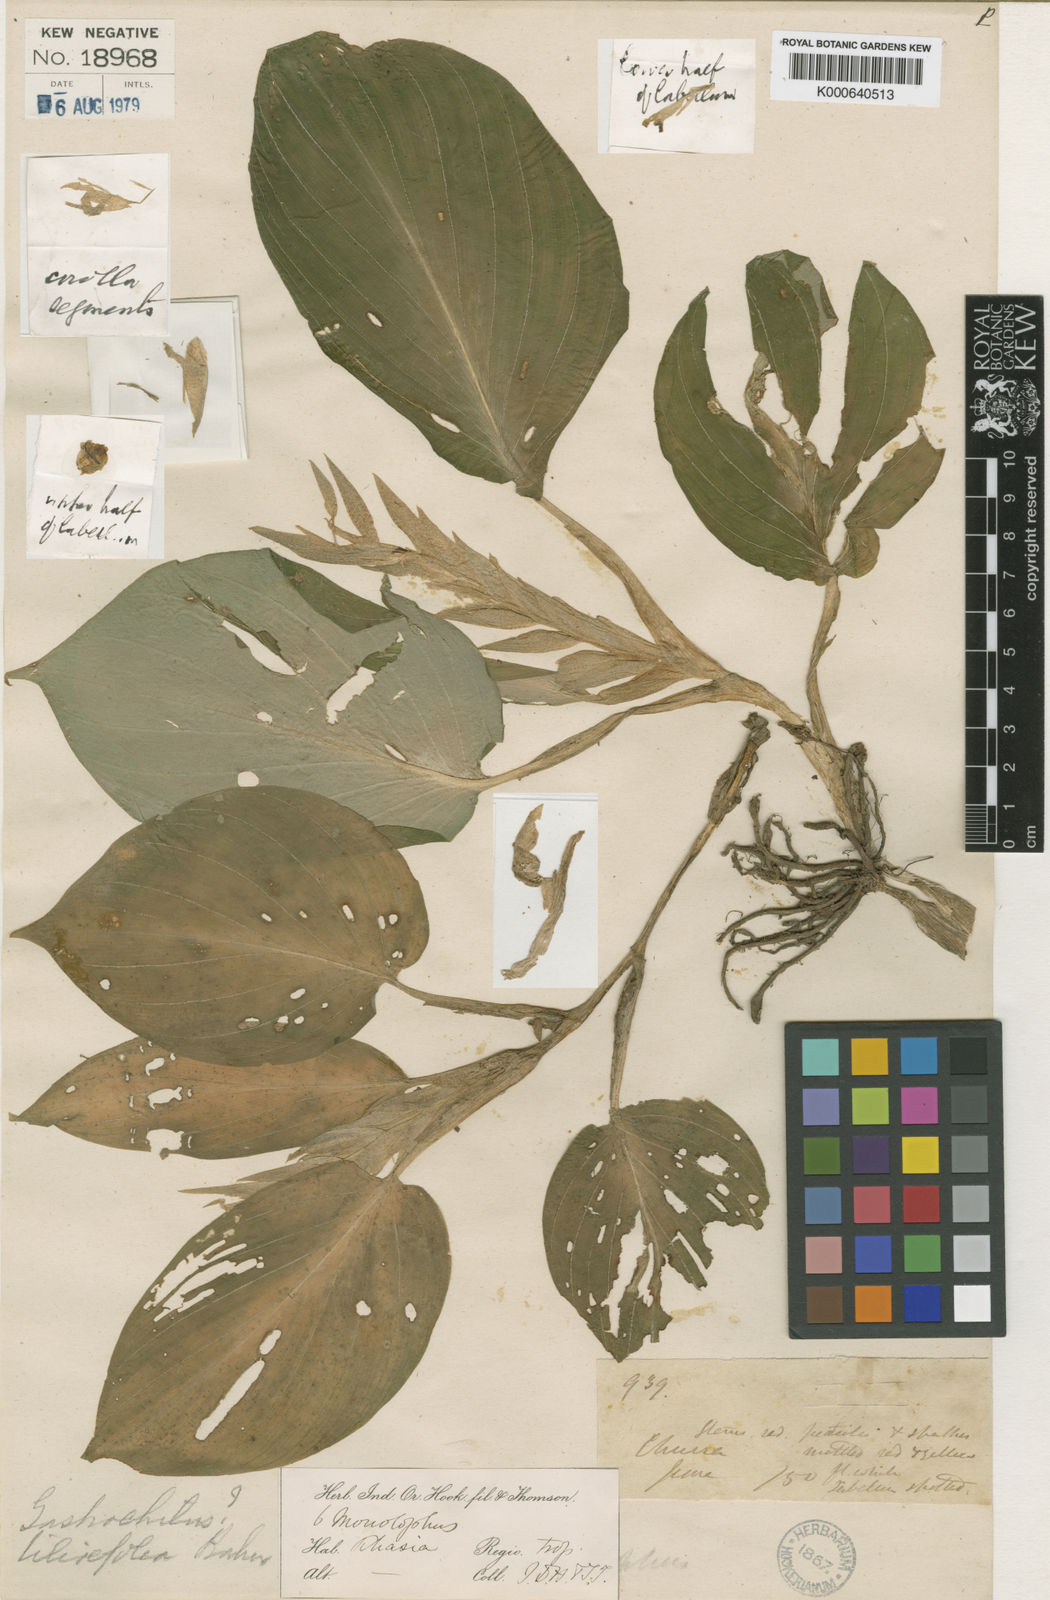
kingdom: Plantae
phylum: Tracheophyta
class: Liliopsida
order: Zingiberales
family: Zingiberaceae
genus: Boesenbergia
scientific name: Boesenbergia tiliifolia
